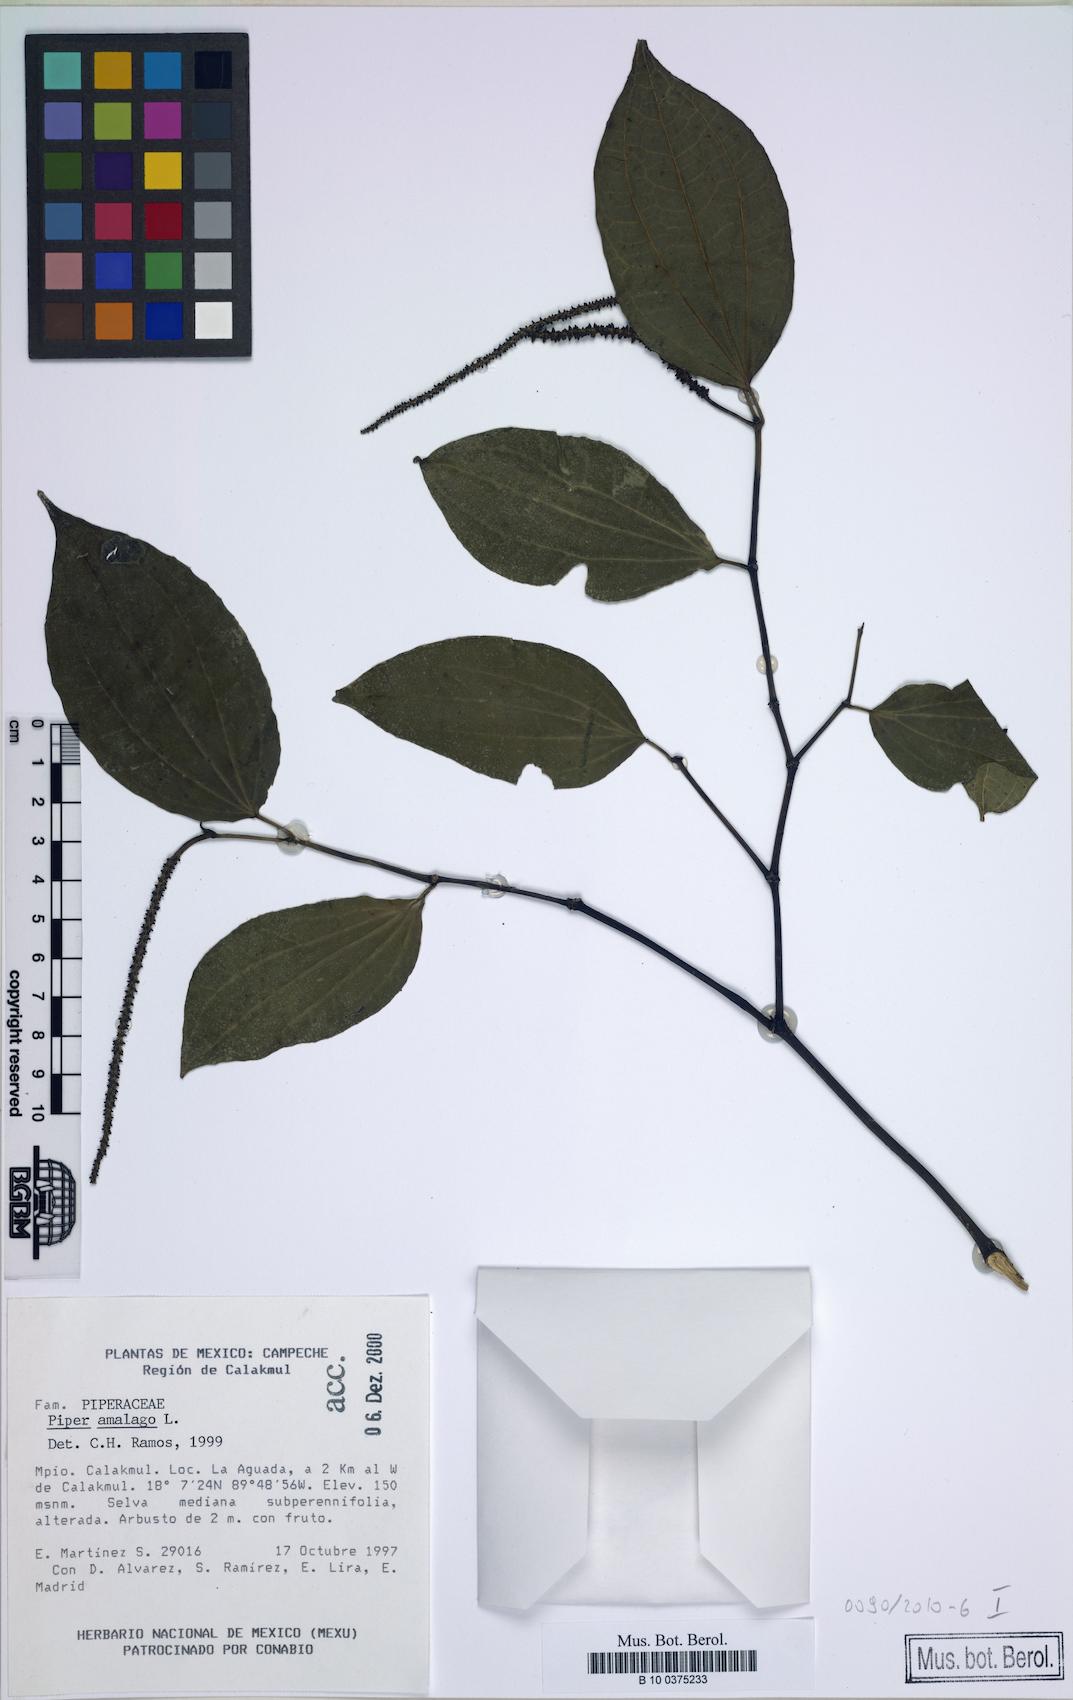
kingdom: Plantae
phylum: Tracheophyta
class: Magnoliopsida
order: Piperales
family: Piperaceae
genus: Piper
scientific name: Piper amalago
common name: Pepper-elder
